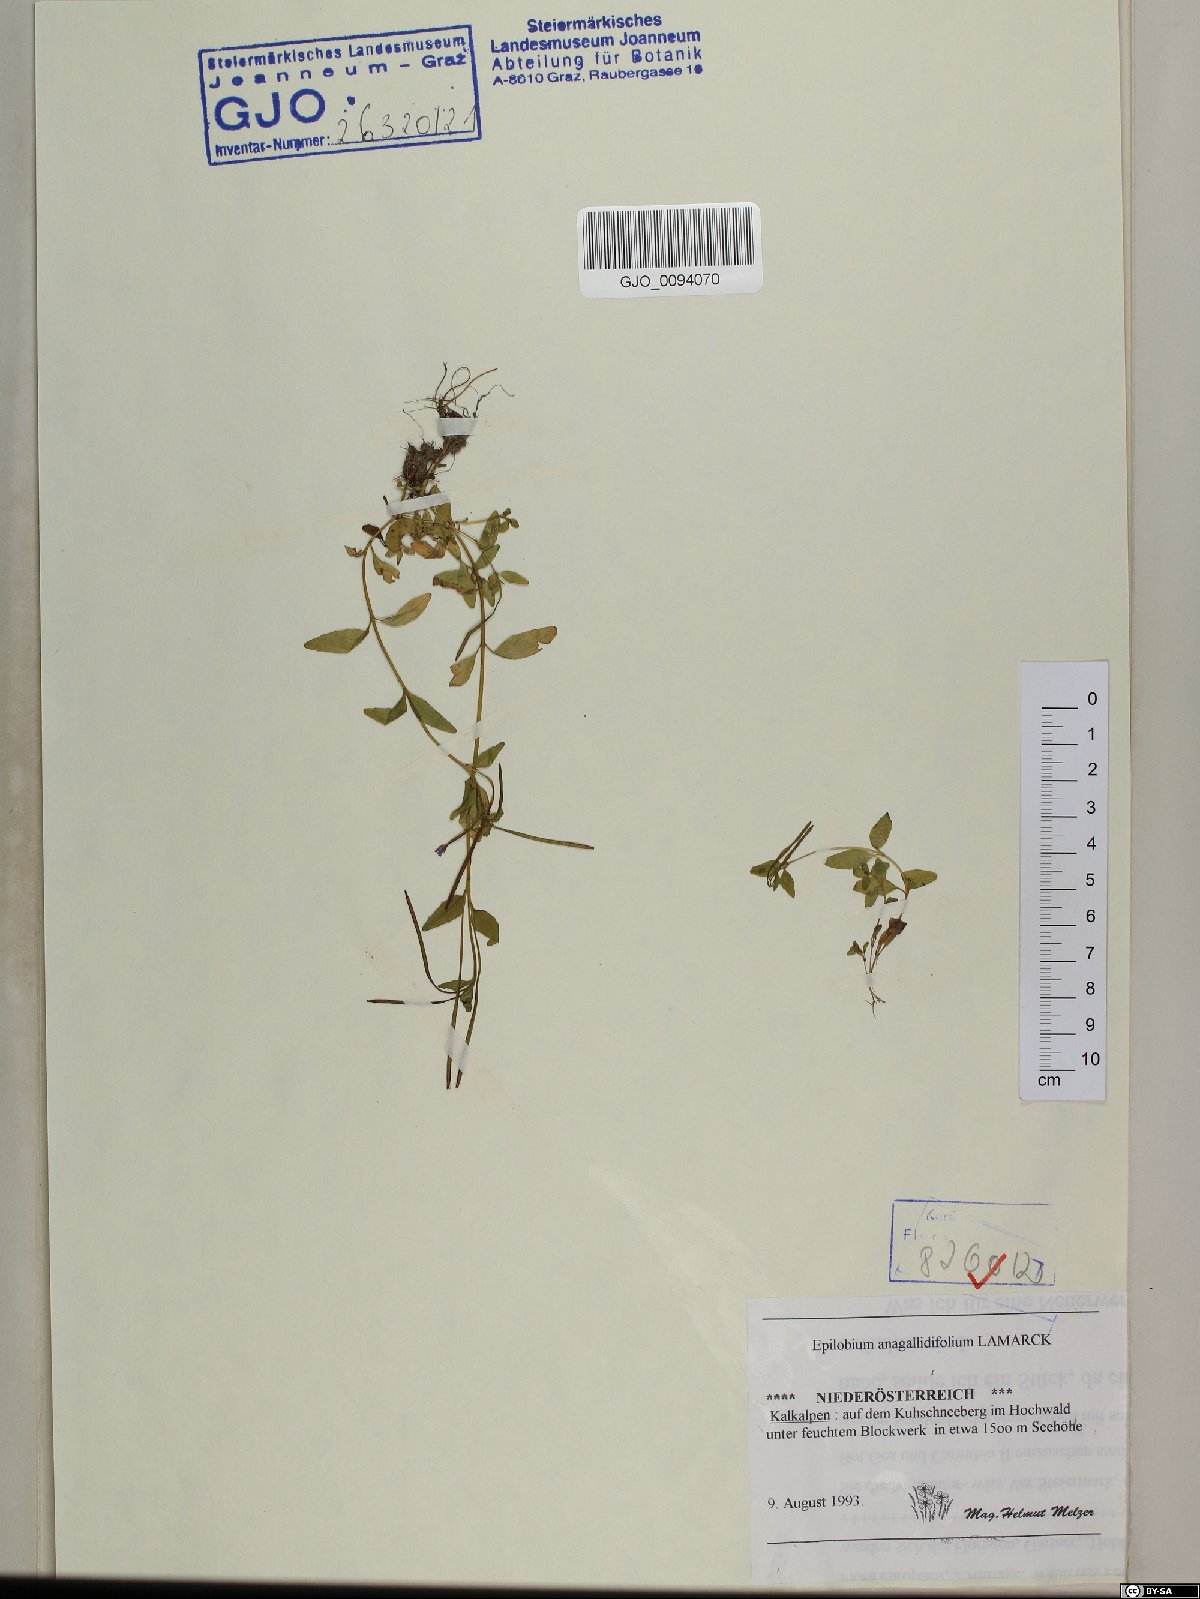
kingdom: Plantae
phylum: Tracheophyta
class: Magnoliopsida
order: Myrtales
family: Onagraceae
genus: Epilobium
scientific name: Epilobium anagallidifolium
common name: Alpine willowherb
